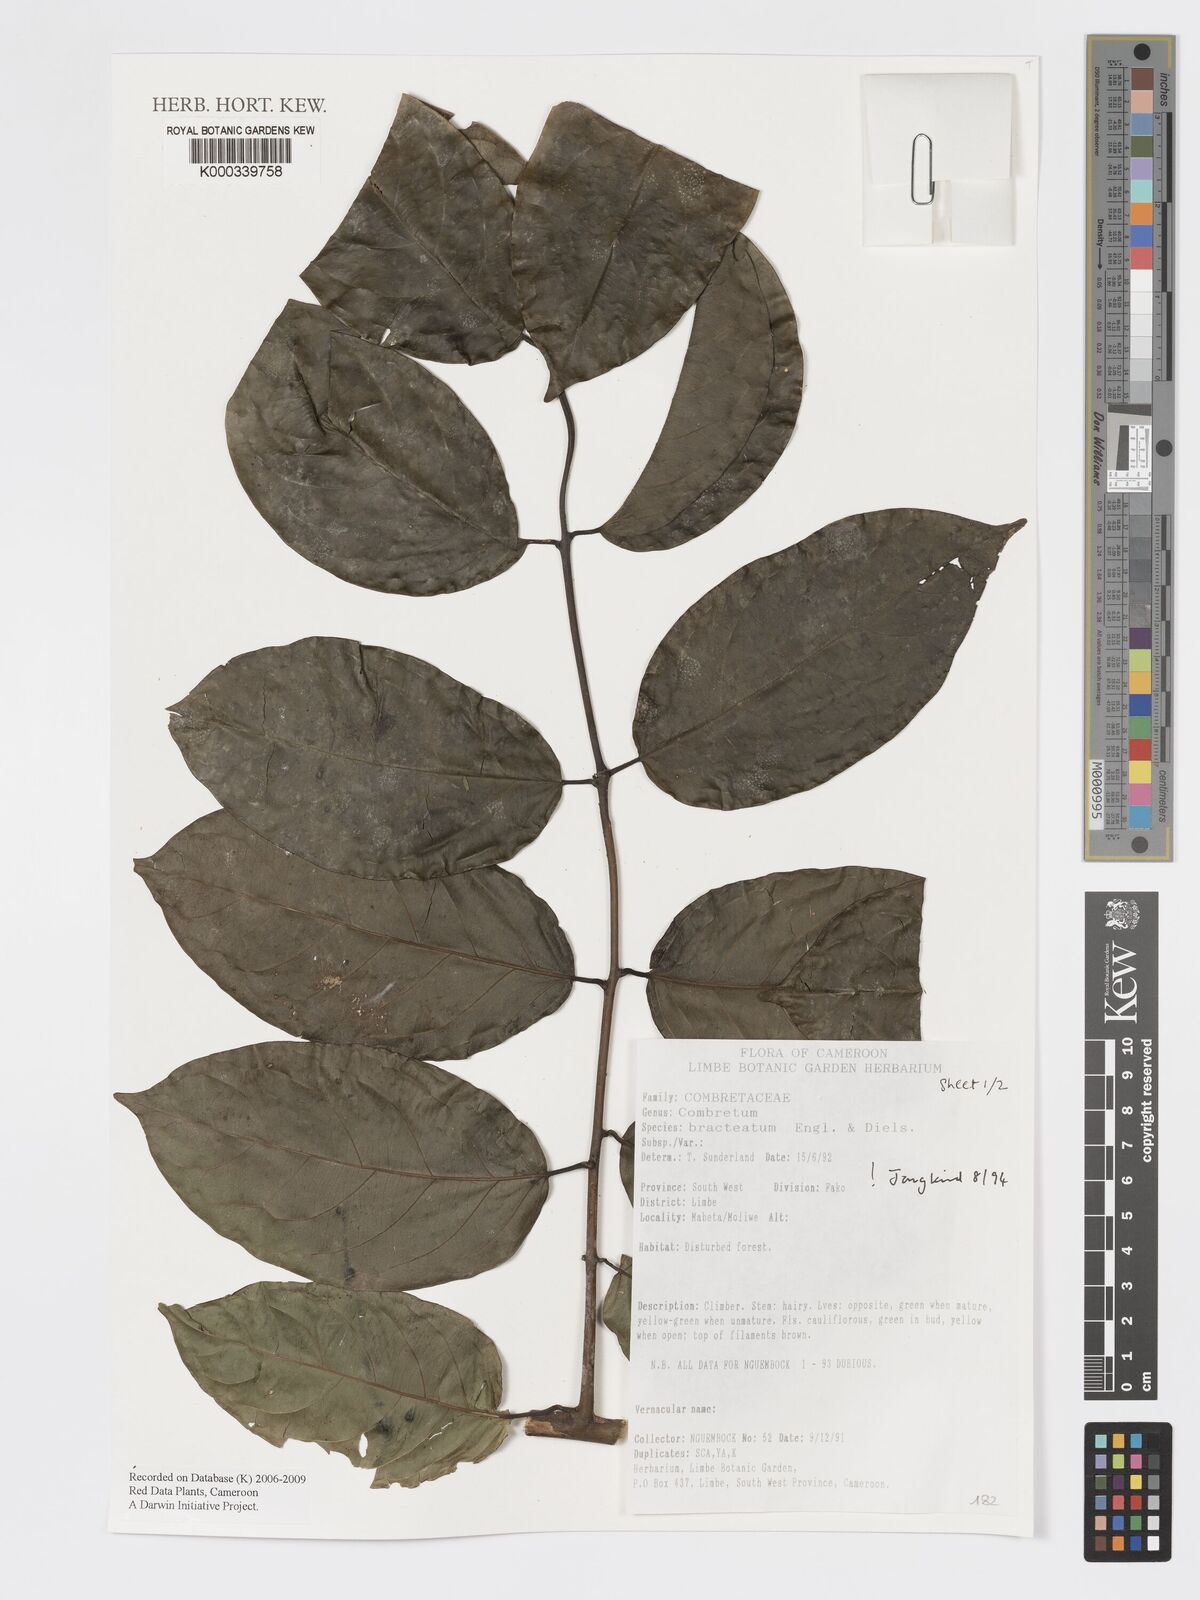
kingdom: Plantae
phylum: Tracheophyta
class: Magnoliopsida
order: Myrtales
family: Combretaceae
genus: Combretum
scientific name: Combretum bracteatum
